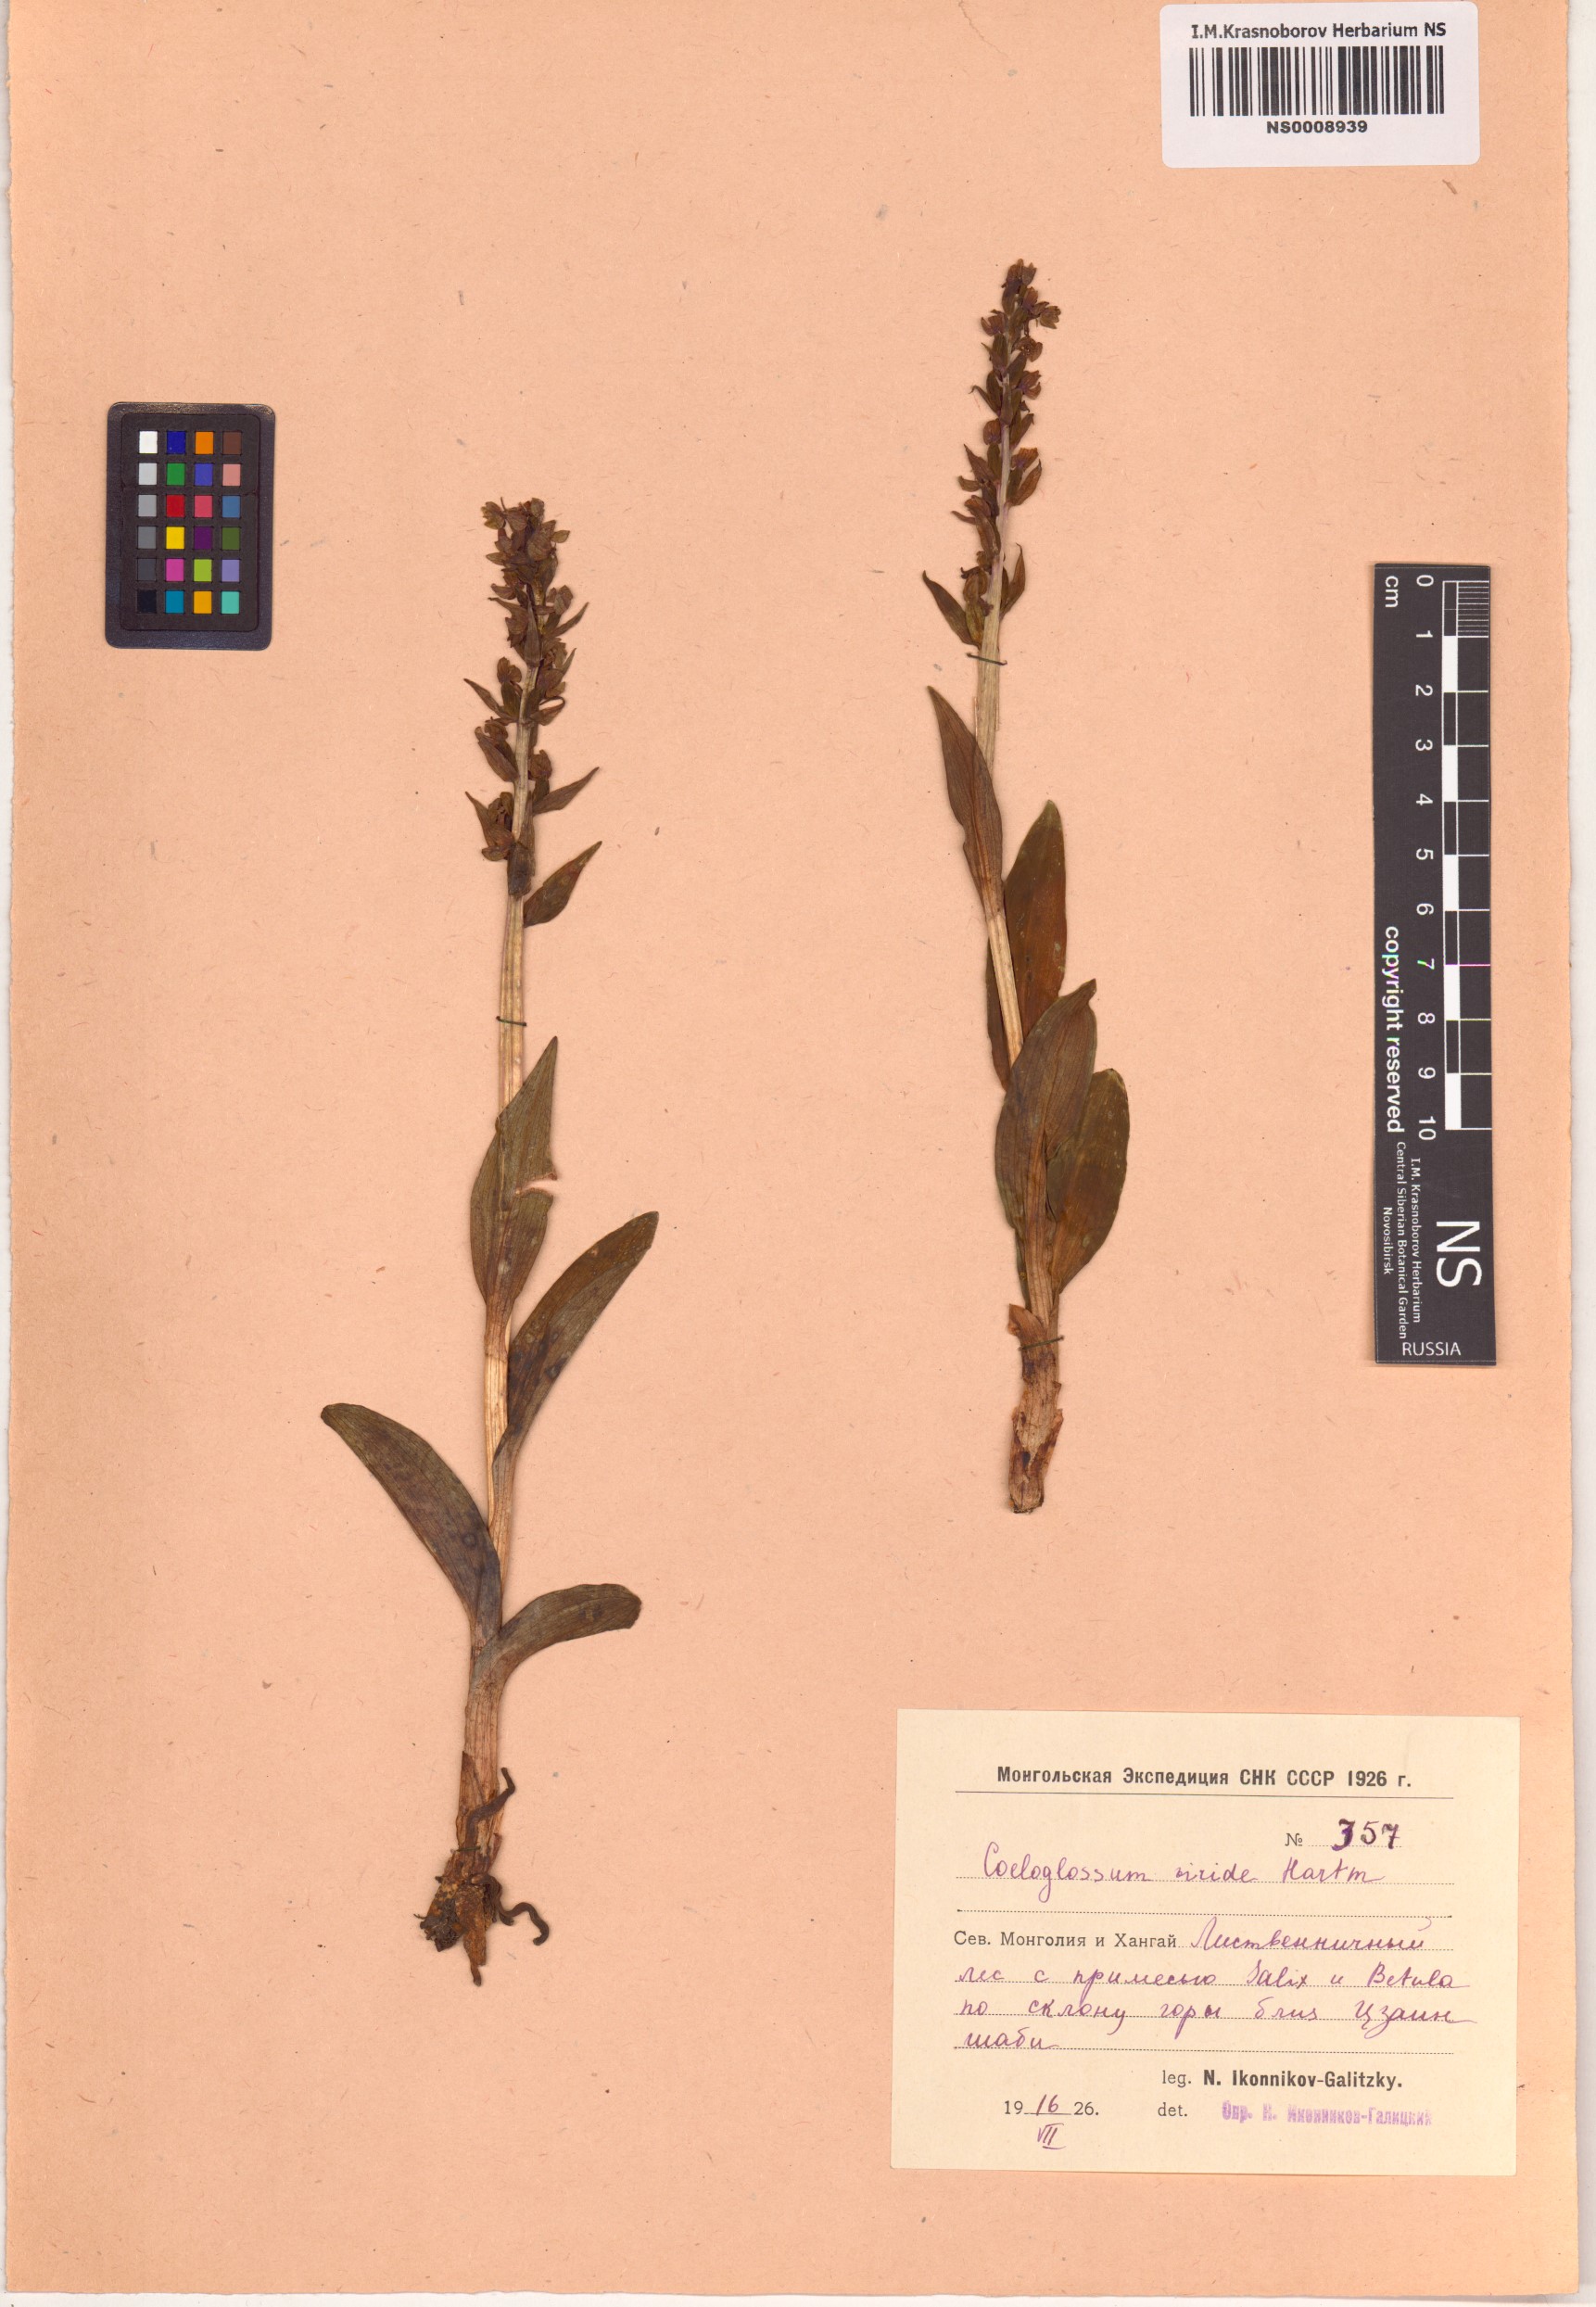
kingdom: Plantae
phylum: Tracheophyta
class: Liliopsida
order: Asparagales
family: Orchidaceae
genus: Dactylorhiza
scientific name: Dactylorhiza viridis
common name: Longbract frog orchid
